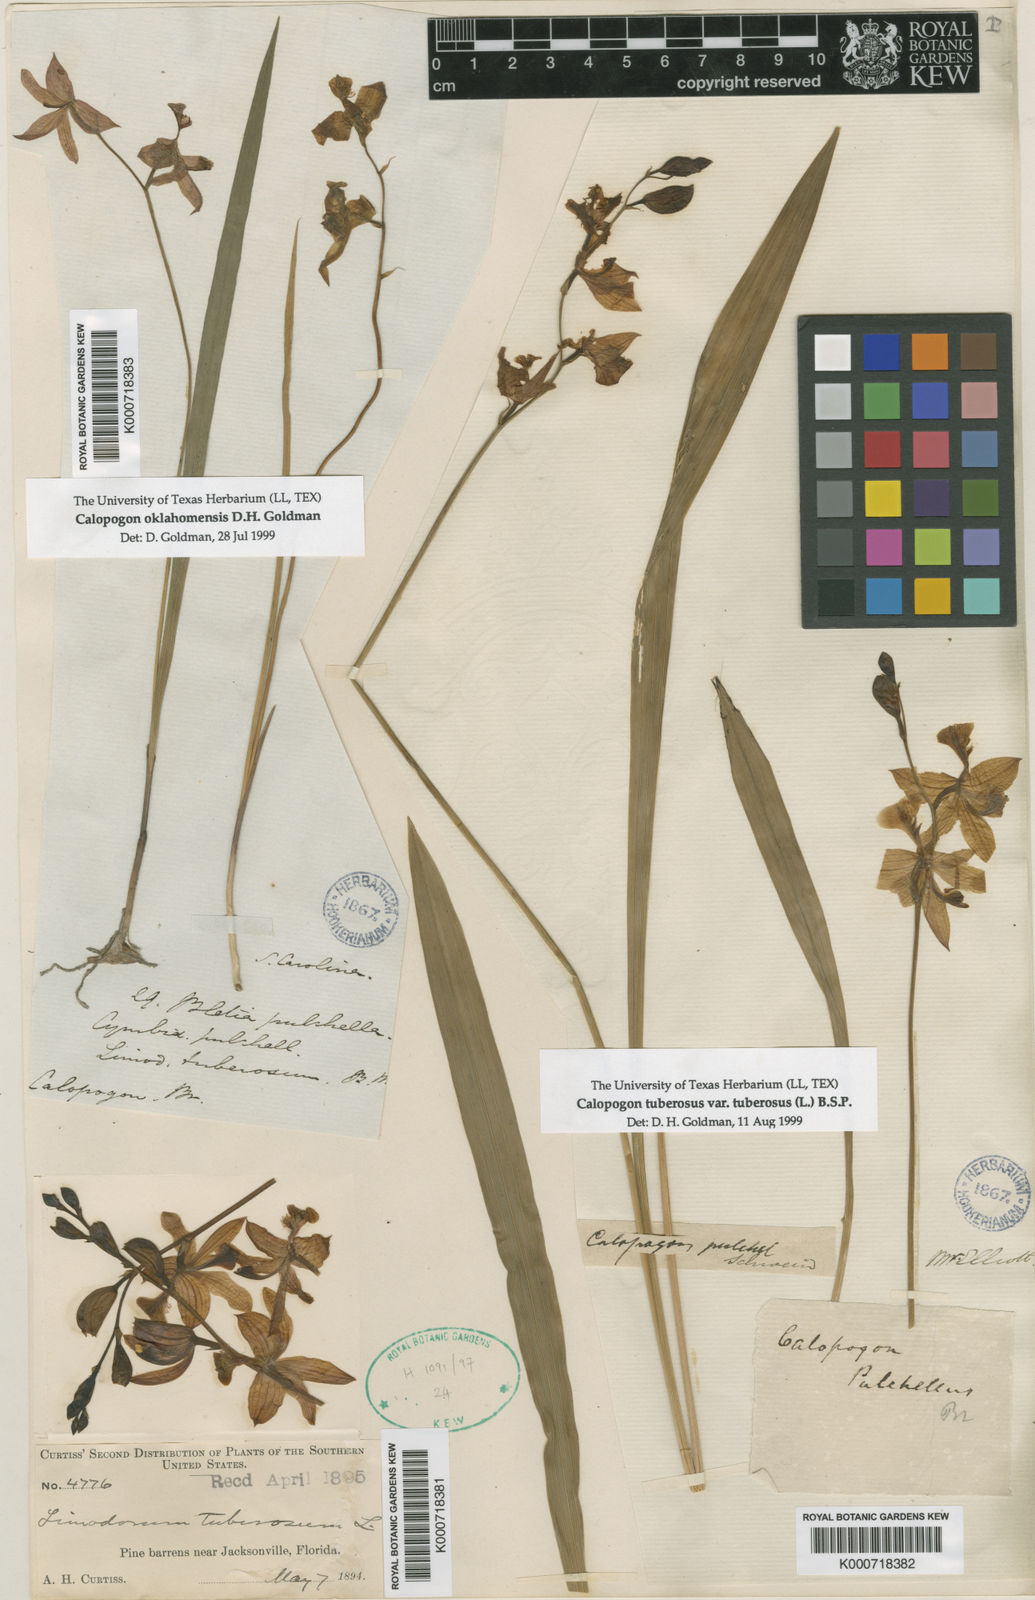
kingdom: Plantae
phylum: Tracheophyta
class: Liliopsida
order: Asparagales
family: Orchidaceae
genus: Calopogon
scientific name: Calopogon tuberosus
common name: Grass-pink
